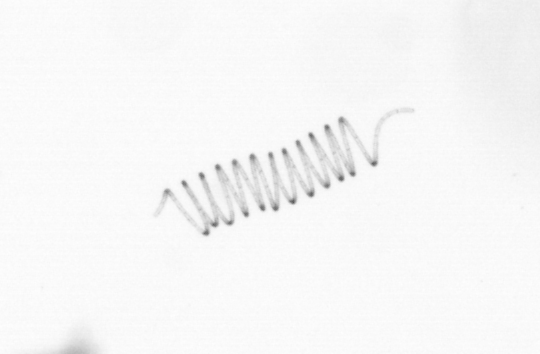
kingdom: Chromista
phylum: Ochrophyta
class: Bacillariophyceae
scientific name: Bacillariophyceae
